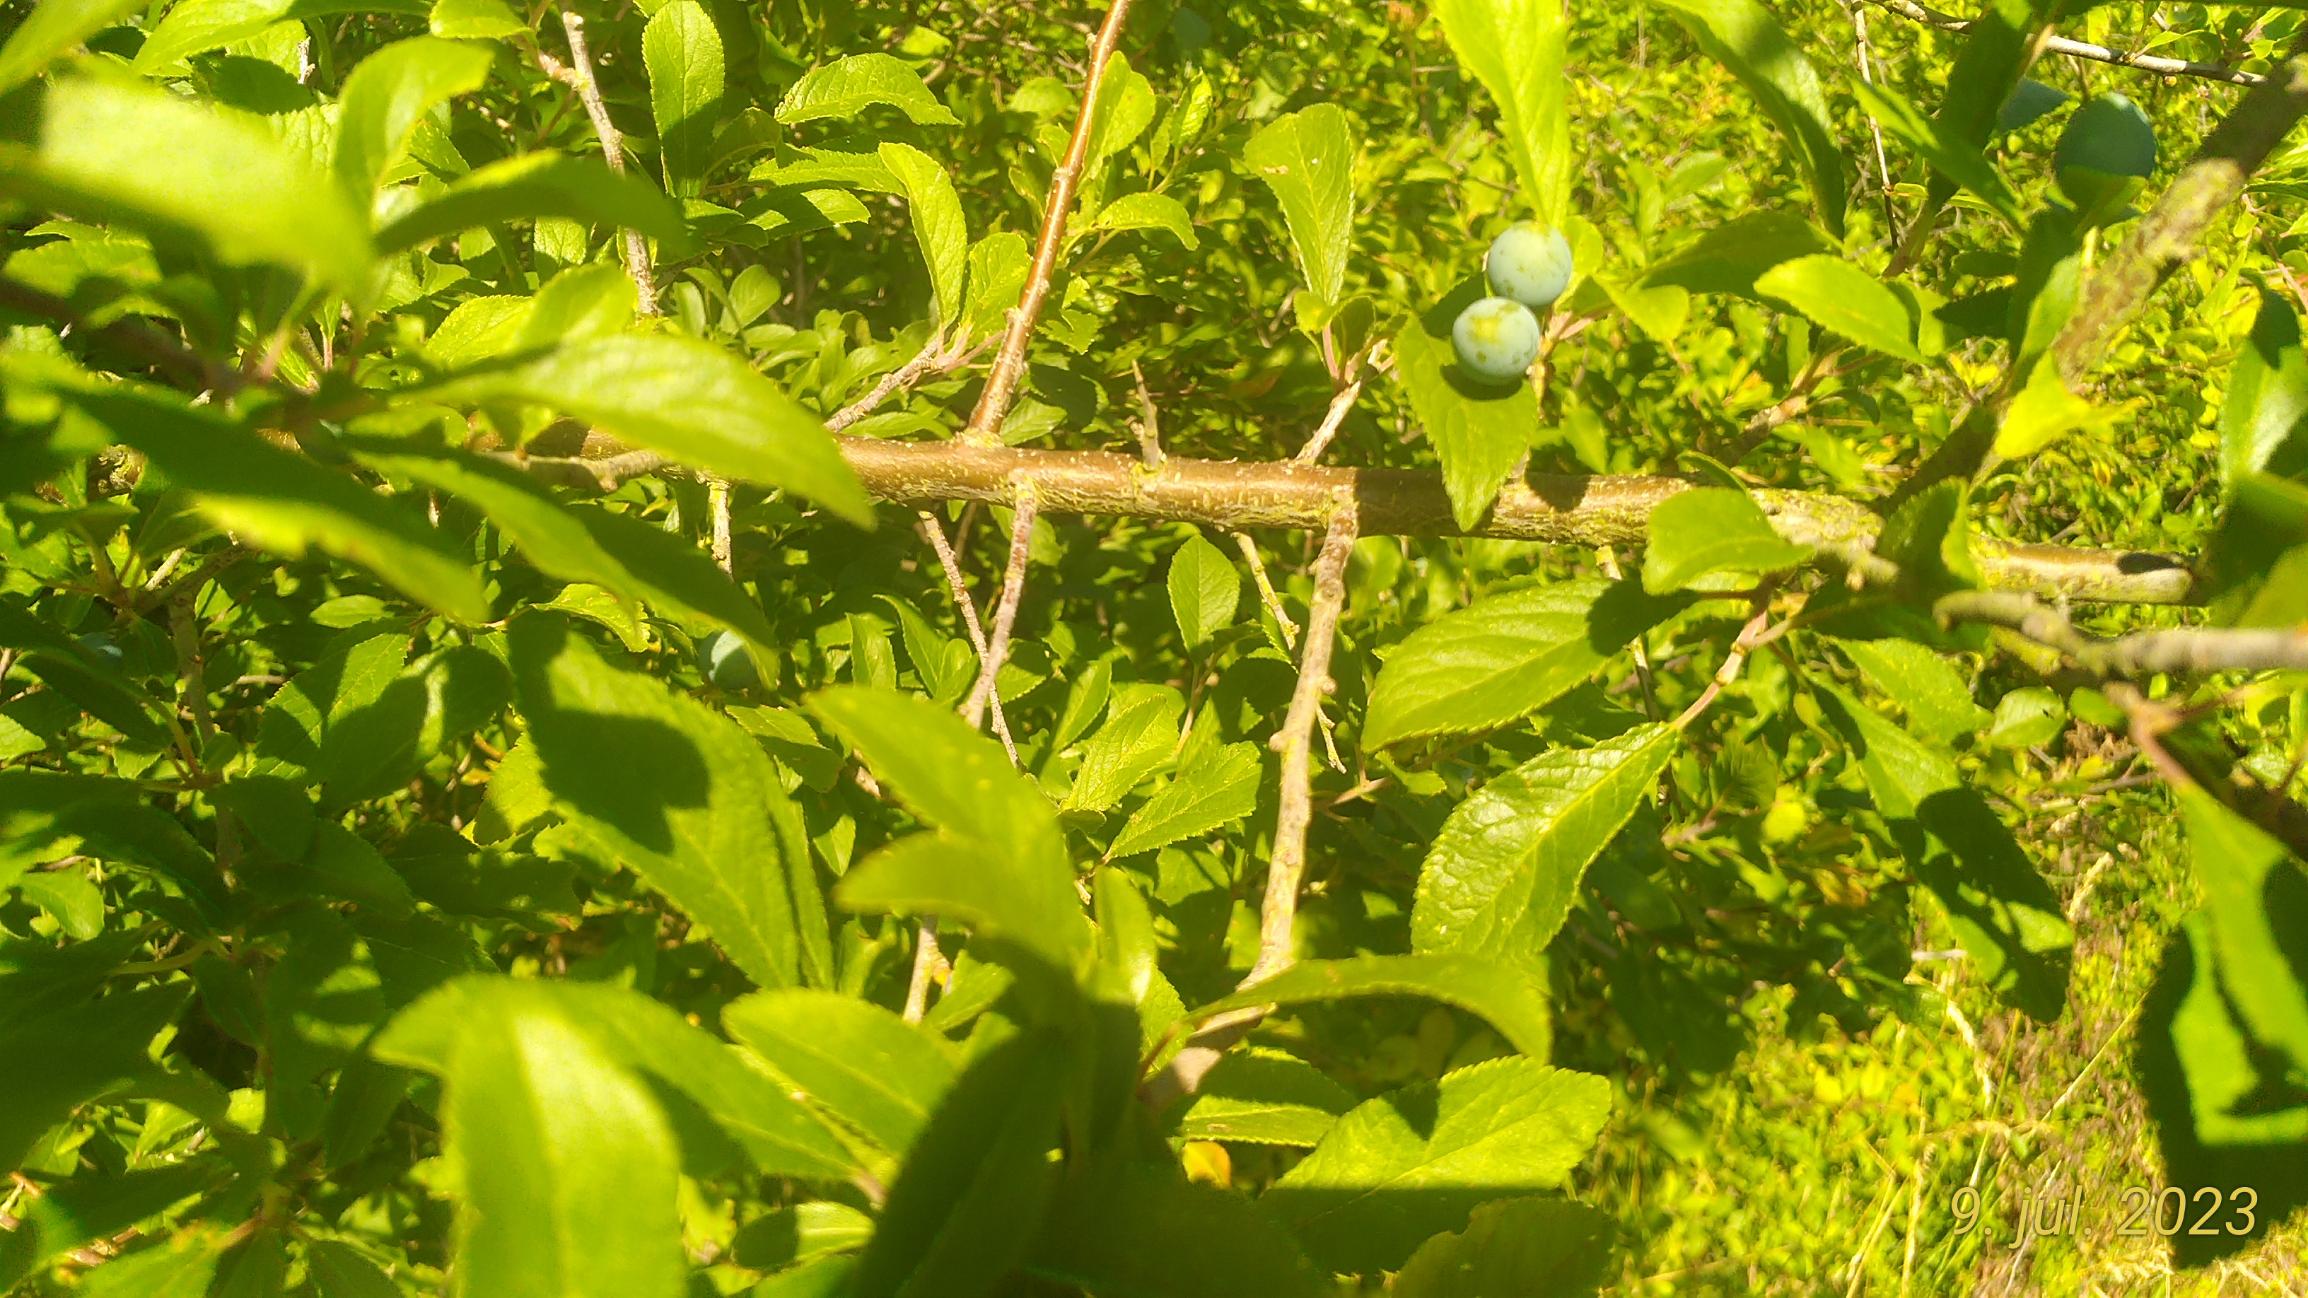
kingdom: Plantae
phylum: Tracheophyta
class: Magnoliopsida
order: Rosales
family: Rosaceae
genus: Prunus
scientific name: Prunus spinosa
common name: Slåen
